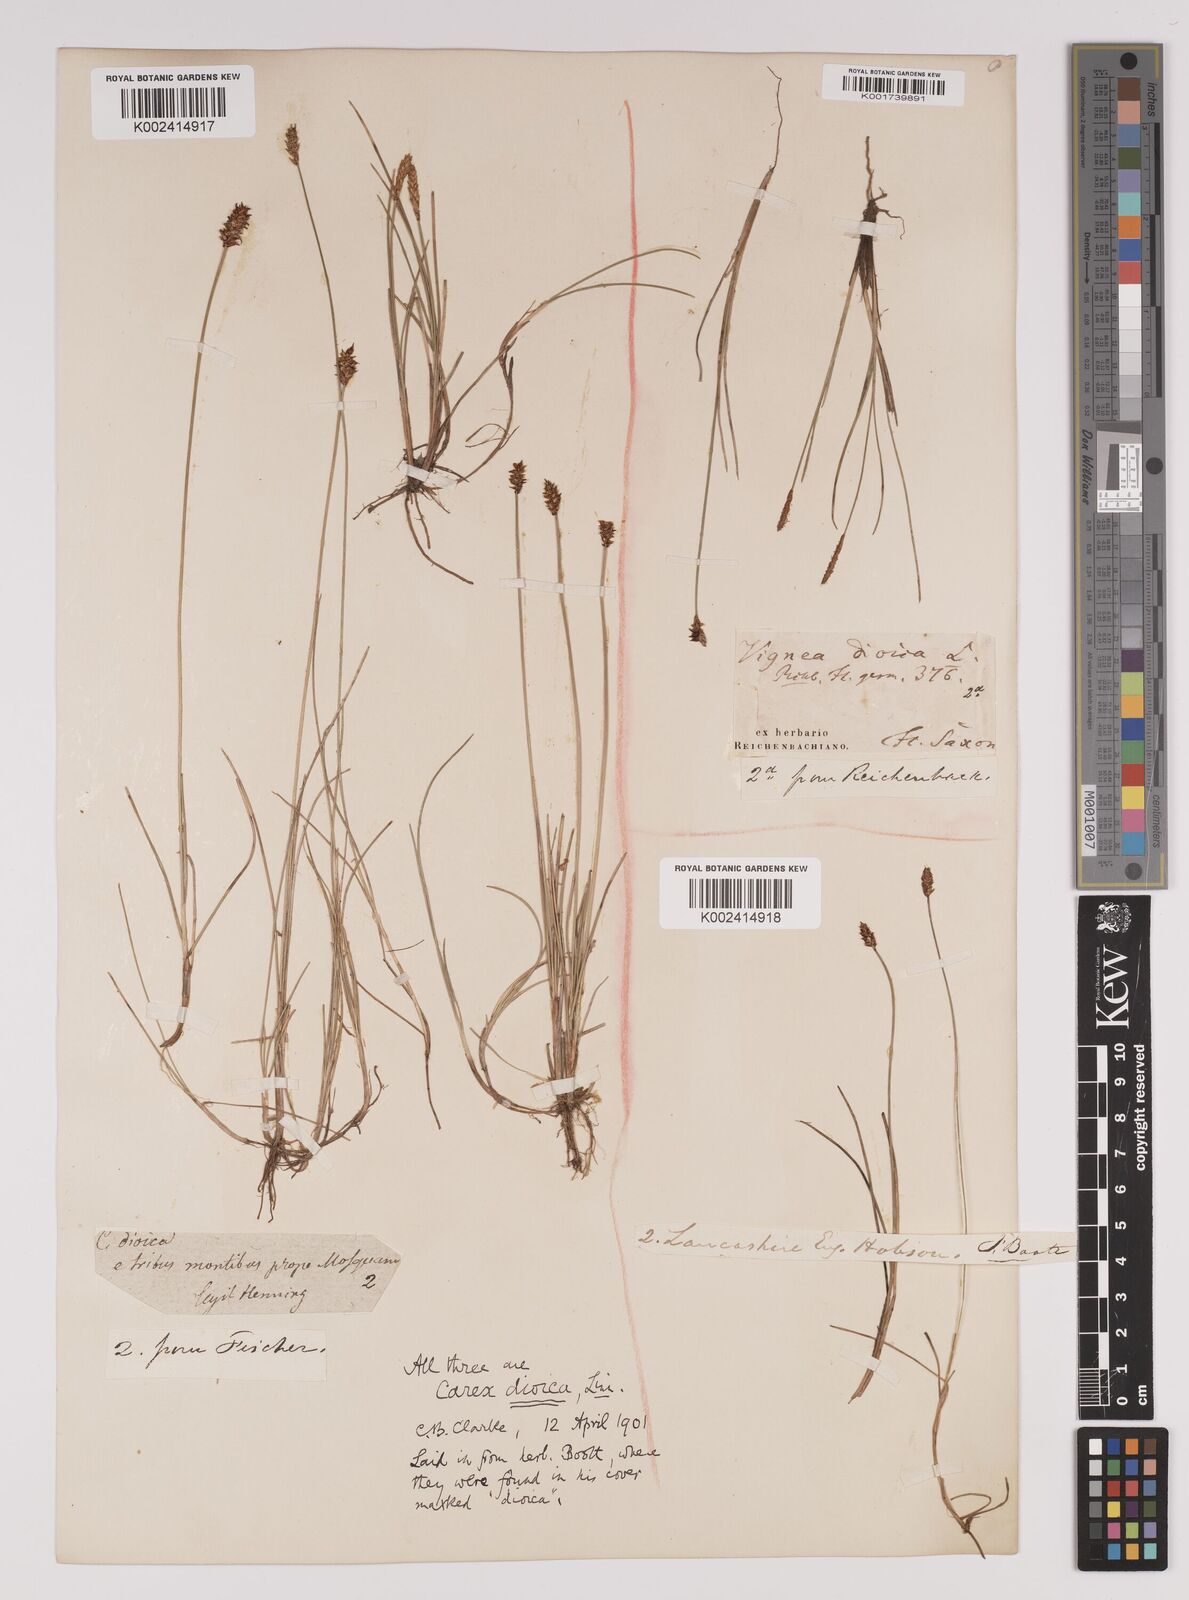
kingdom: Plantae
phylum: Tracheophyta
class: Liliopsida
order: Poales
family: Cyperaceae
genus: Carex
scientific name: Carex dioica
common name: Dioecious sedge
